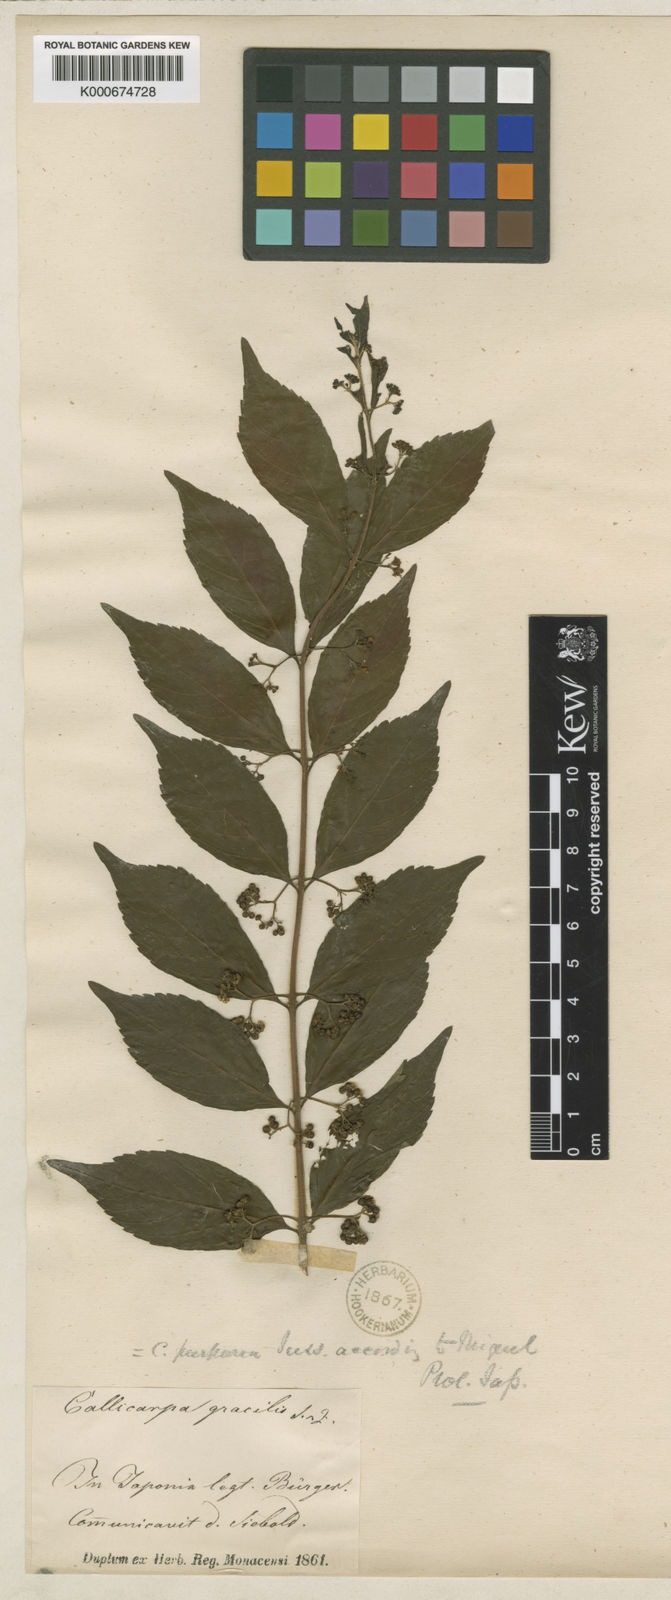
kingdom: Plantae
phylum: Tracheophyta
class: Magnoliopsida
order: Lamiales
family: Lamiaceae
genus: Callicarpa
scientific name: Callicarpa dichotoma
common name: Purple beauty-berry
